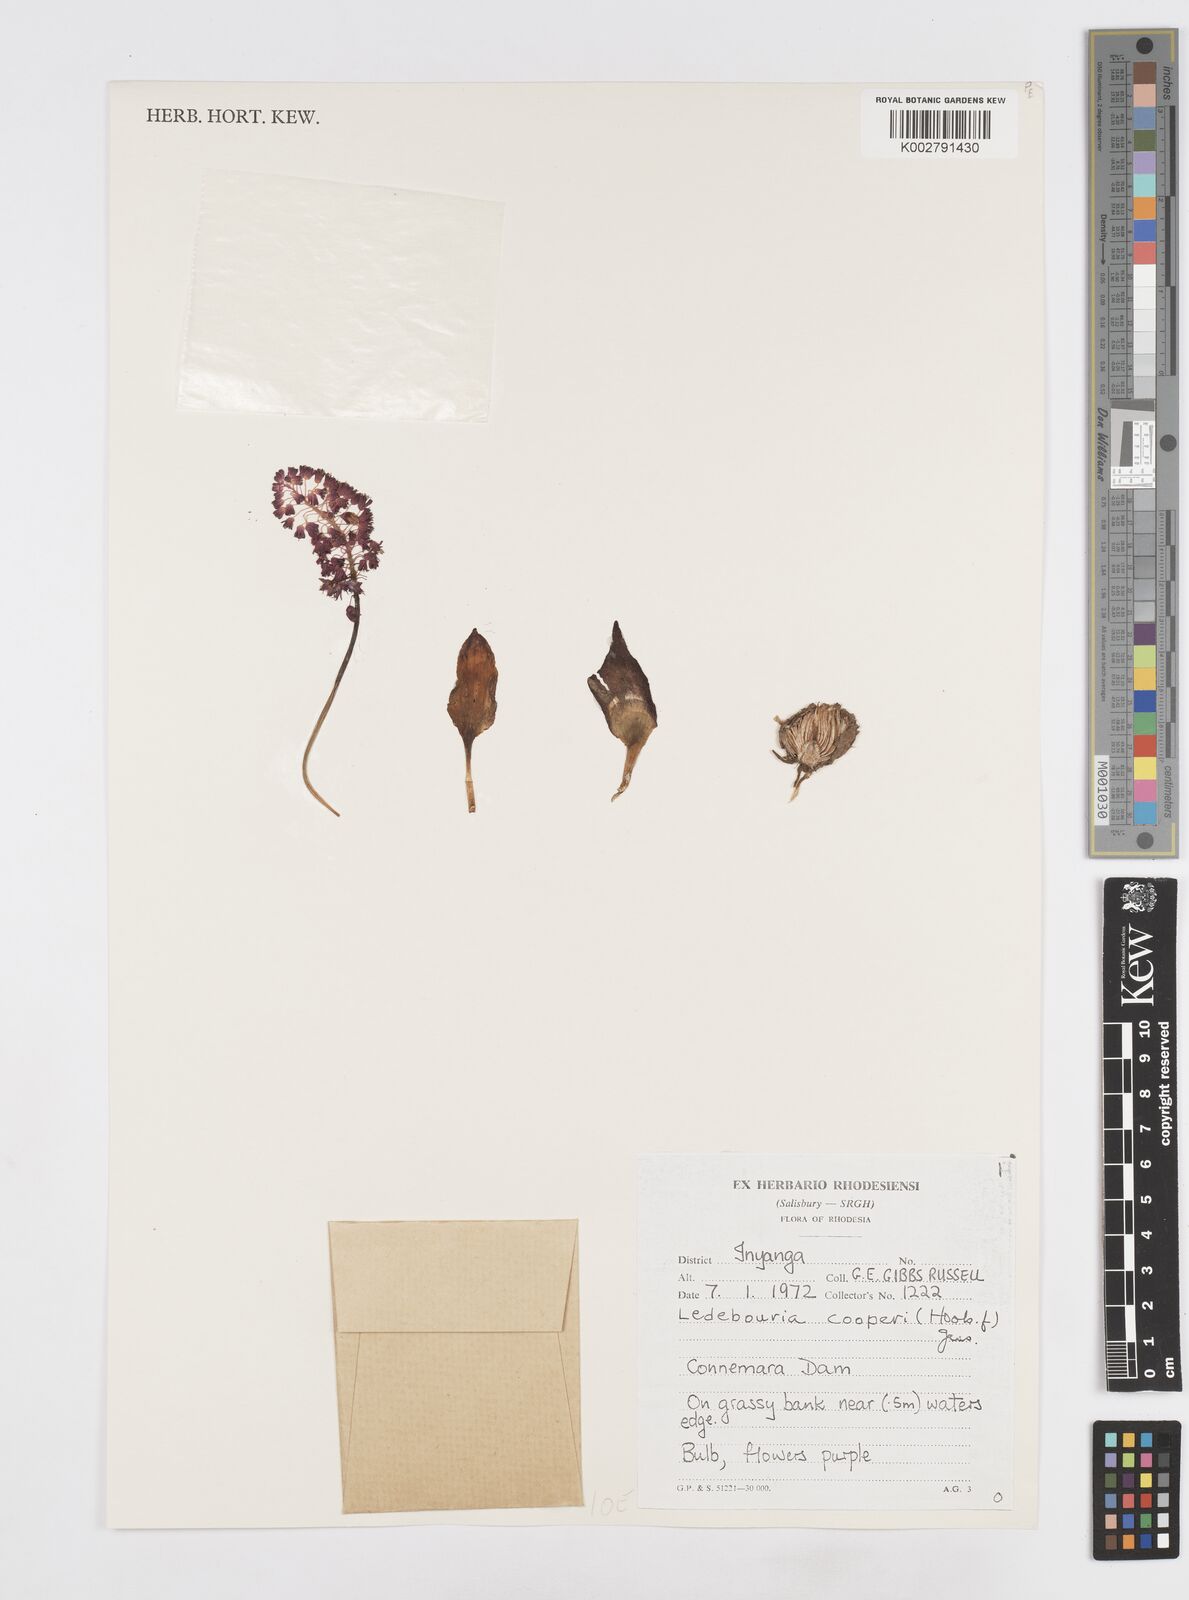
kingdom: Plantae
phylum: Tracheophyta
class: Liliopsida
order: Asparagales
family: Asparagaceae
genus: Ledebouria
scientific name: Ledebouria cooperi
